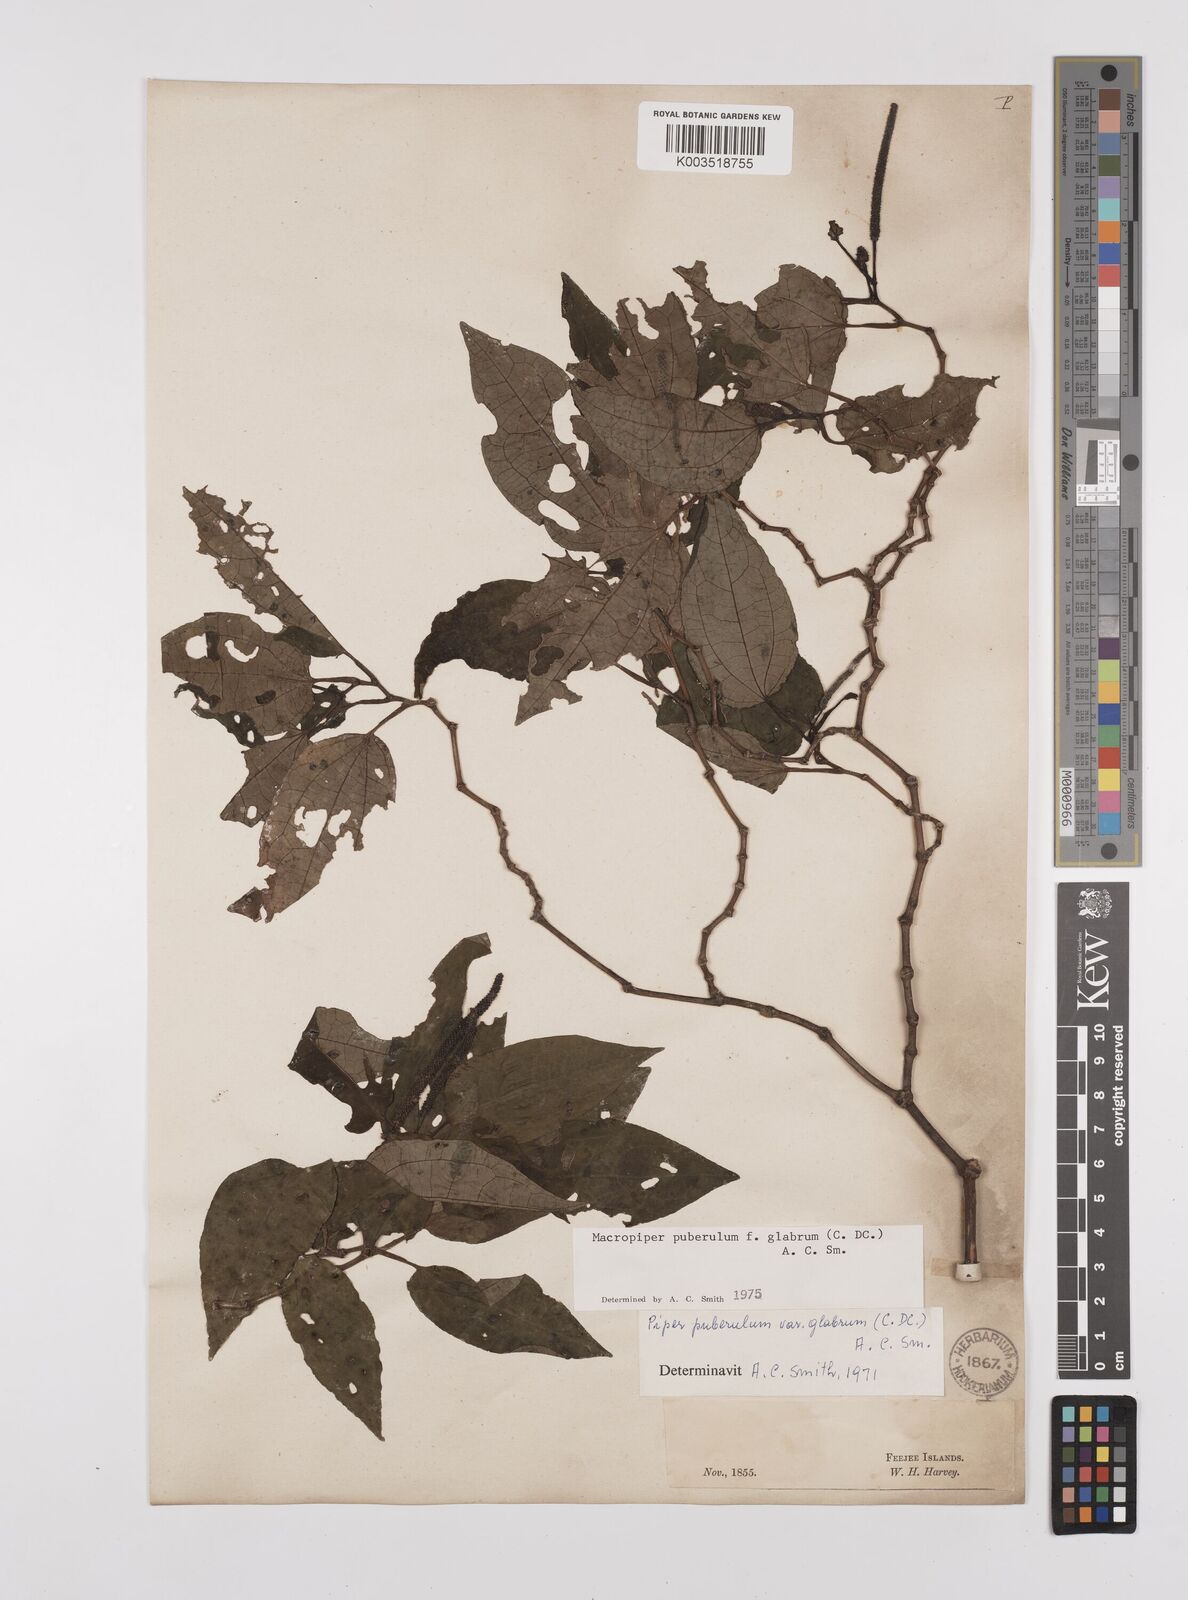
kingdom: Plantae
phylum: Tracheophyta
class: Magnoliopsida
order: Piperales
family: Piperaceae
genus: Macropiper
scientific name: Macropiper puberulum
